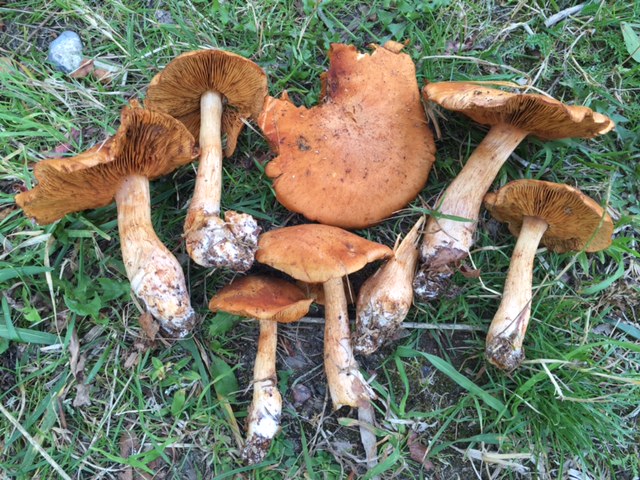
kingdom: Fungi
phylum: Basidiomycota
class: Agaricomycetes
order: Agaricales
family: Cortinariaceae
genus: Cortinarius
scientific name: Cortinarius balaustinus
